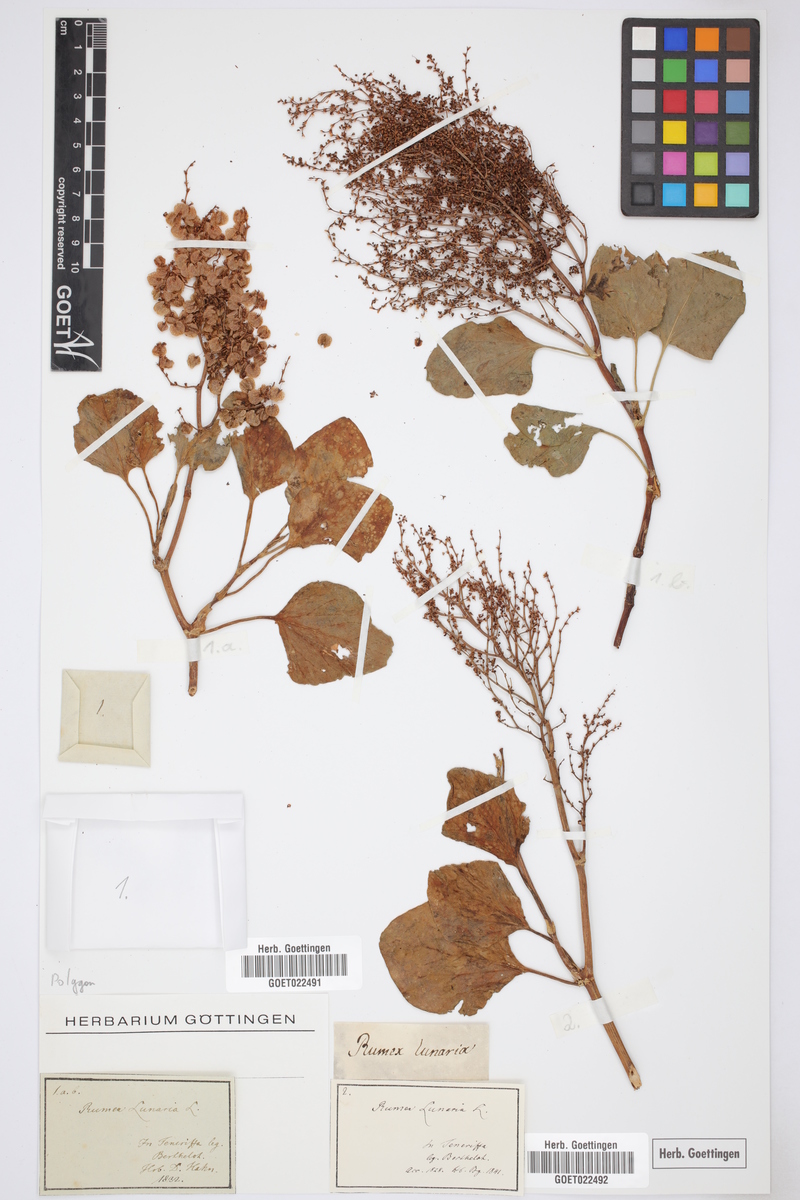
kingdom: Plantae
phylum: Tracheophyta
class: Magnoliopsida
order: Caryophyllales
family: Polygonaceae
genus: Rumex
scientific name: Rumex lunaria
